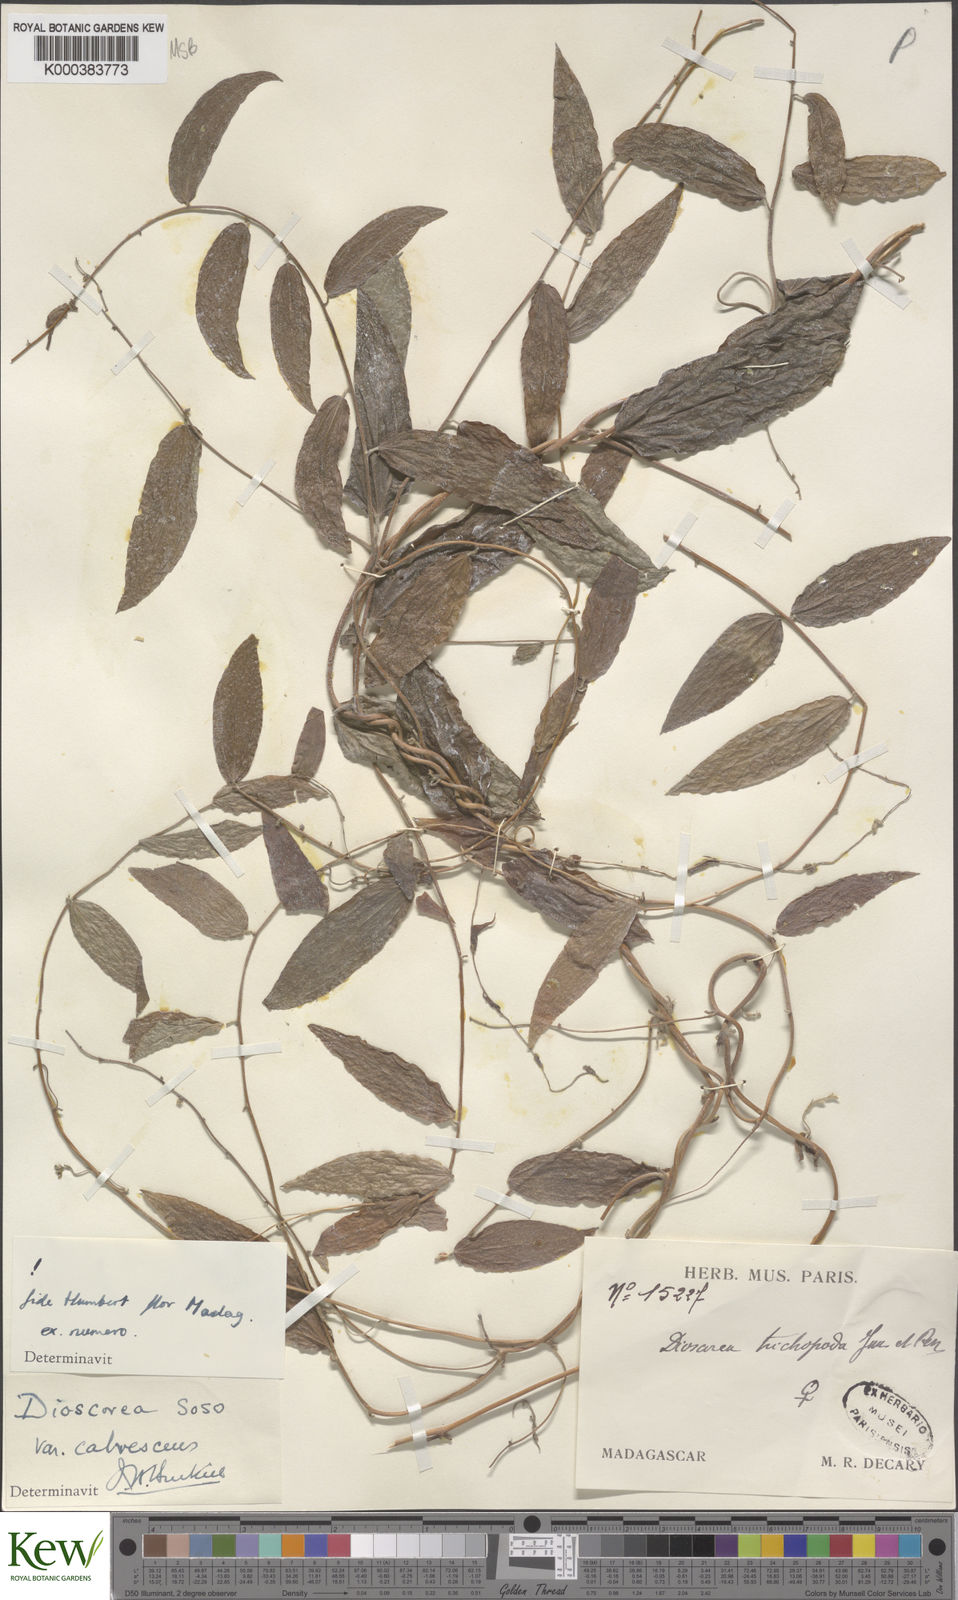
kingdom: Plantae
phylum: Tracheophyta
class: Liliopsida
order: Dioscoreales
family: Dioscoreaceae
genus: Dioscorea
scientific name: Dioscorea
